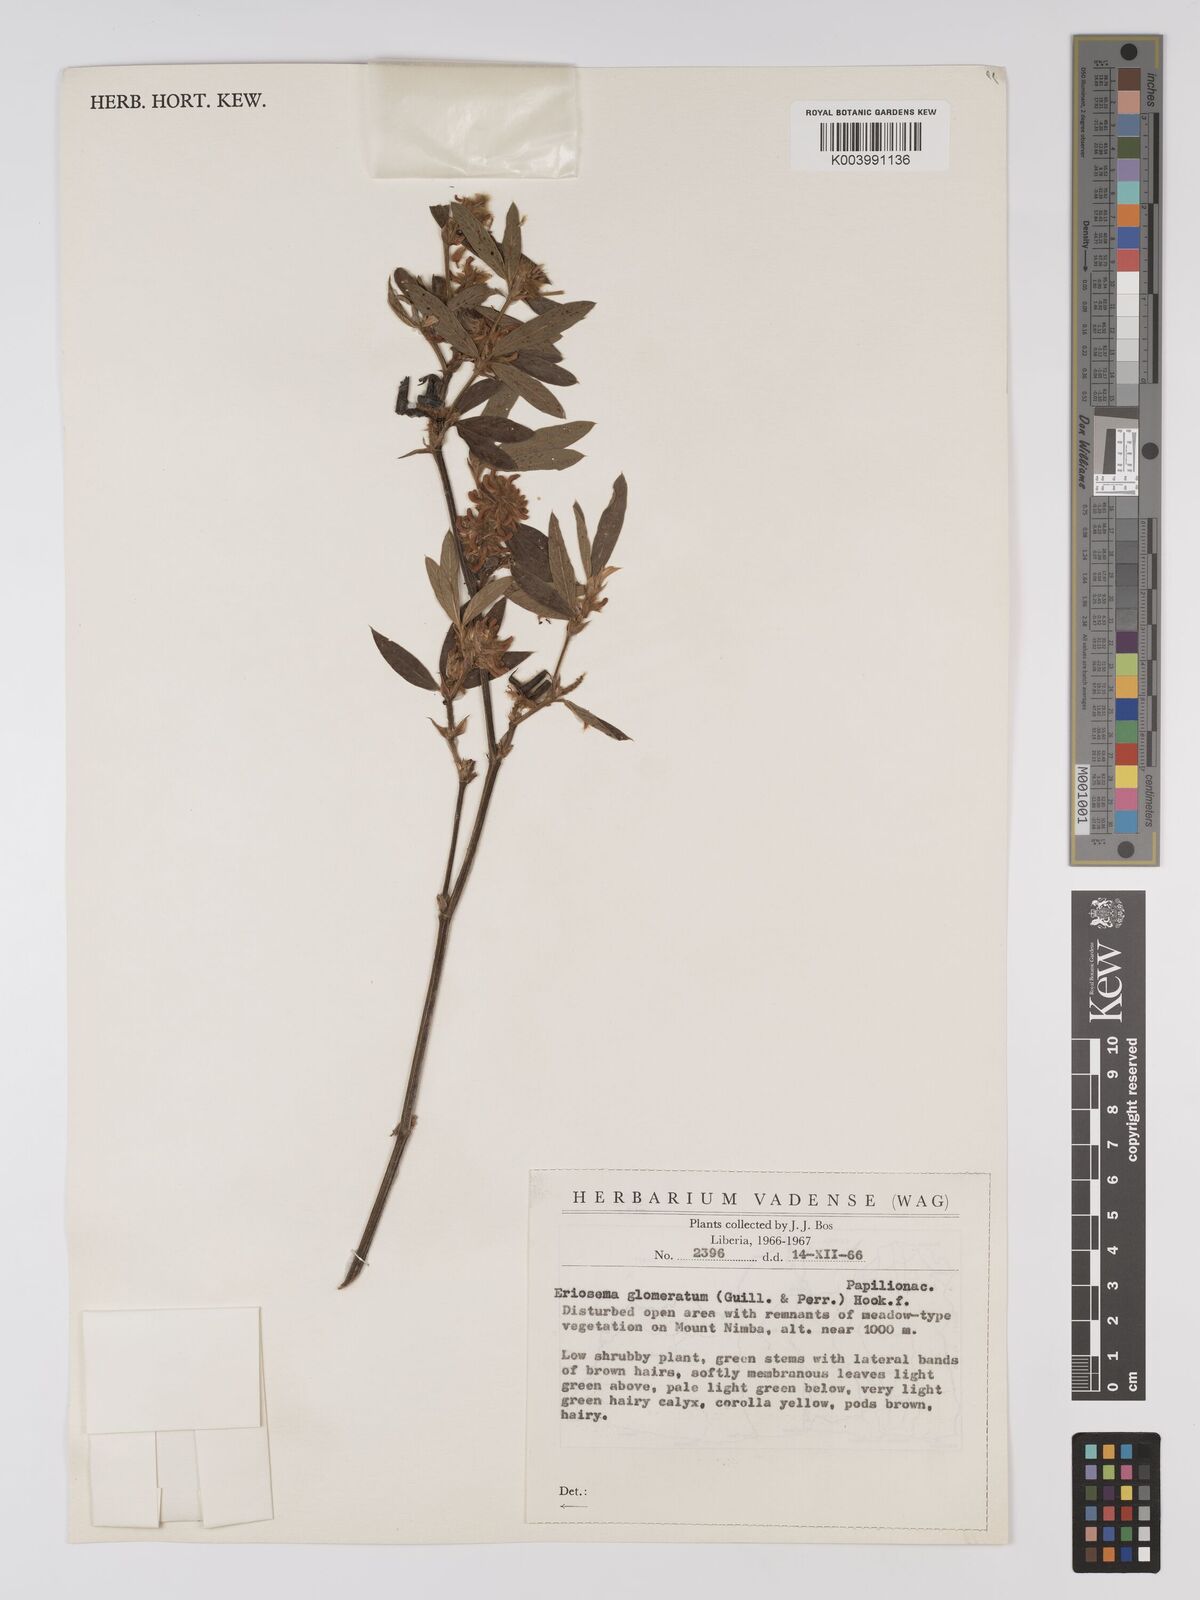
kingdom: Plantae
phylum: Tracheophyta
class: Magnoliopsida
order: Fabales
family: Fabaceae
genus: Eriosema
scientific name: Eriosema glomeratum
